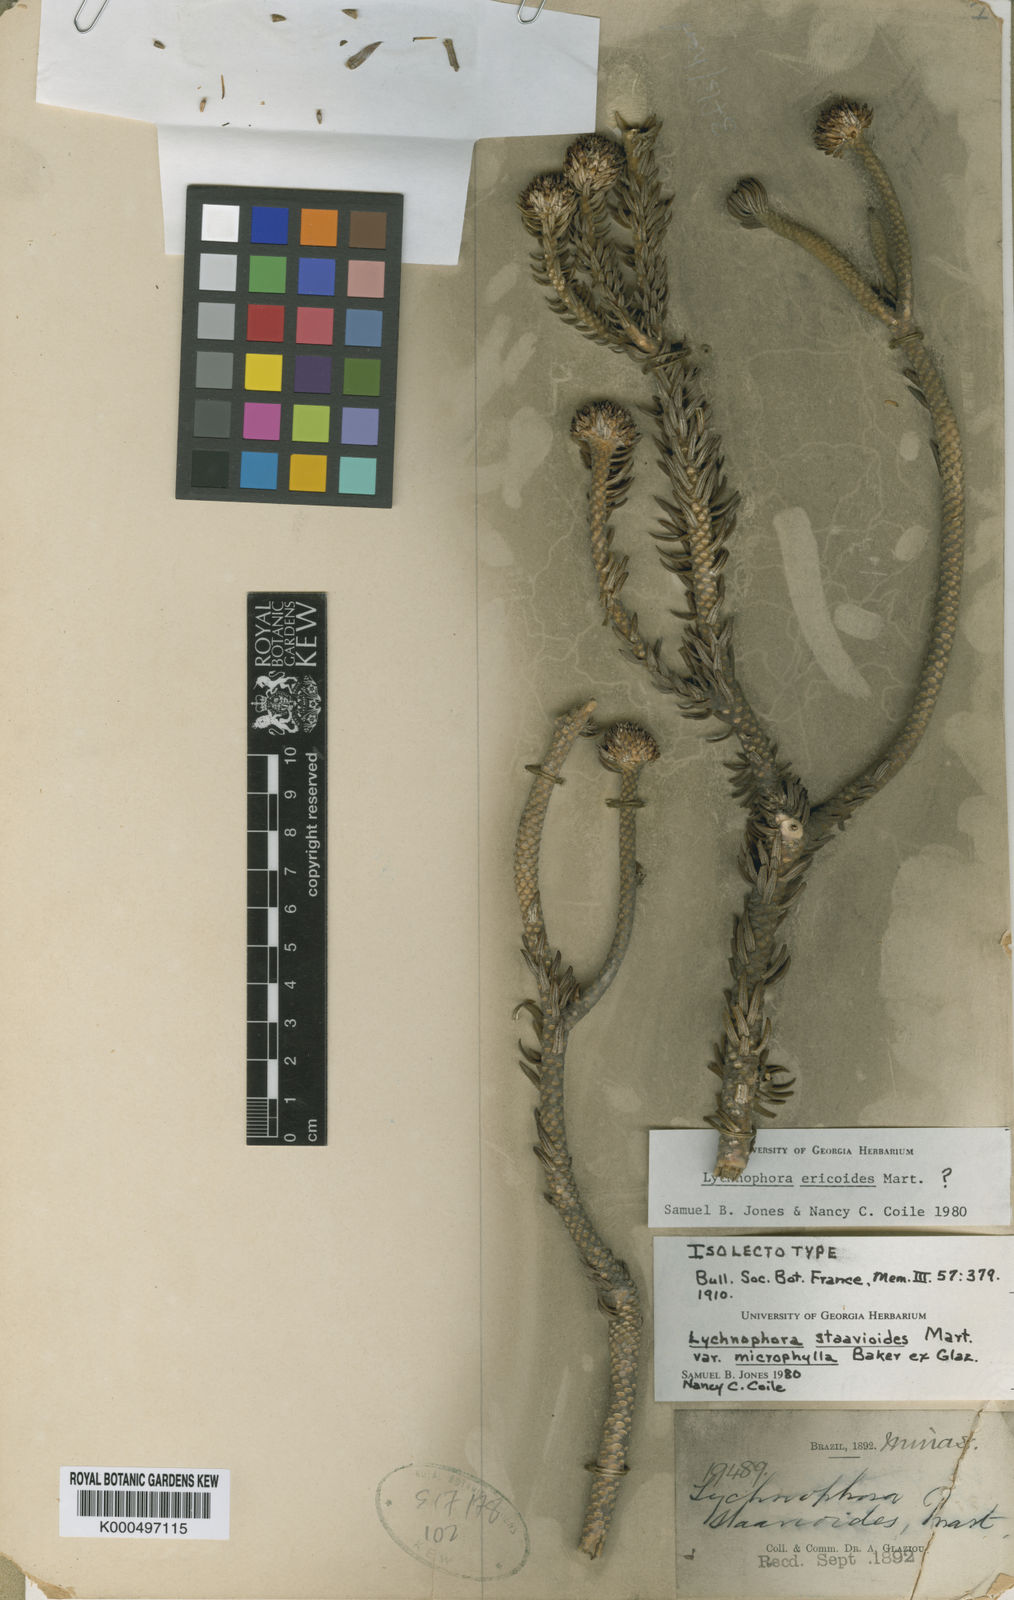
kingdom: Plantae
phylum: Tracheophyta
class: Magnoliopsida
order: Asterales
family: Asteraceae
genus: Lychnophora
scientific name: Lychnophora pohlii
